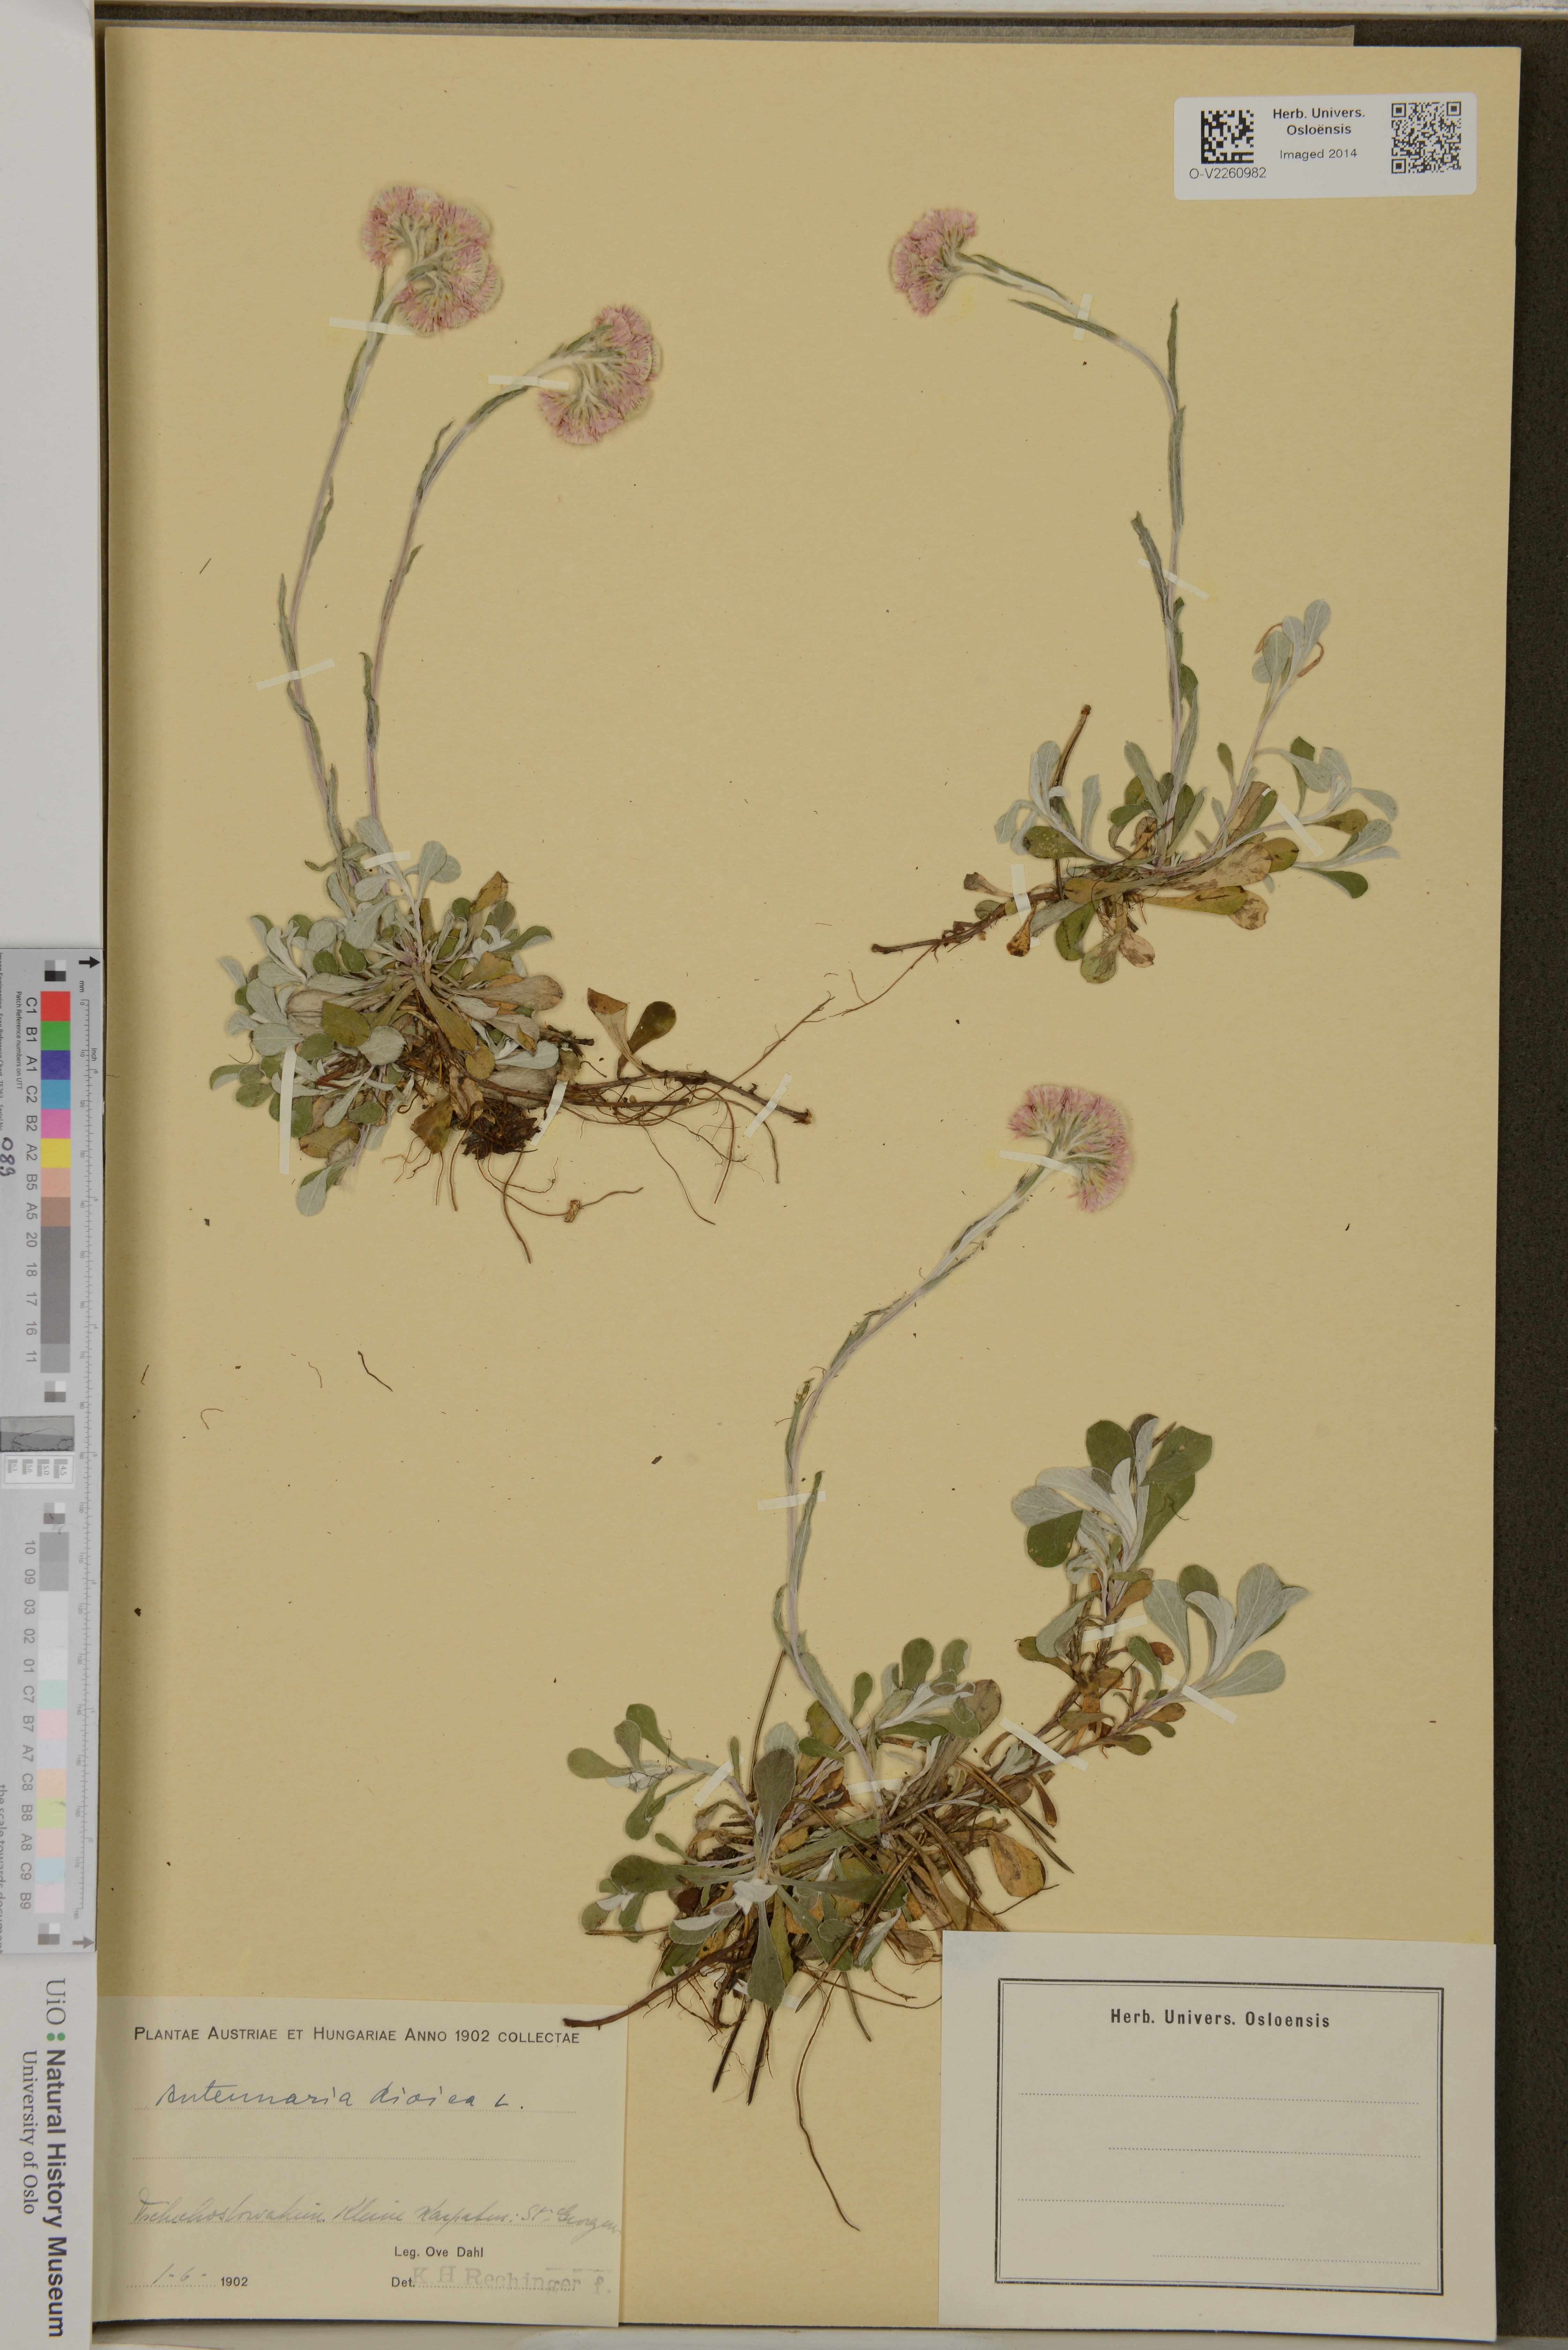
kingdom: Plantae
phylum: Tracheophyta
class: Magnoliopsida
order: Asterales
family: Asteraceae
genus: Antennaria
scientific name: Antennaria dioica
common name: Mountain everlasting
